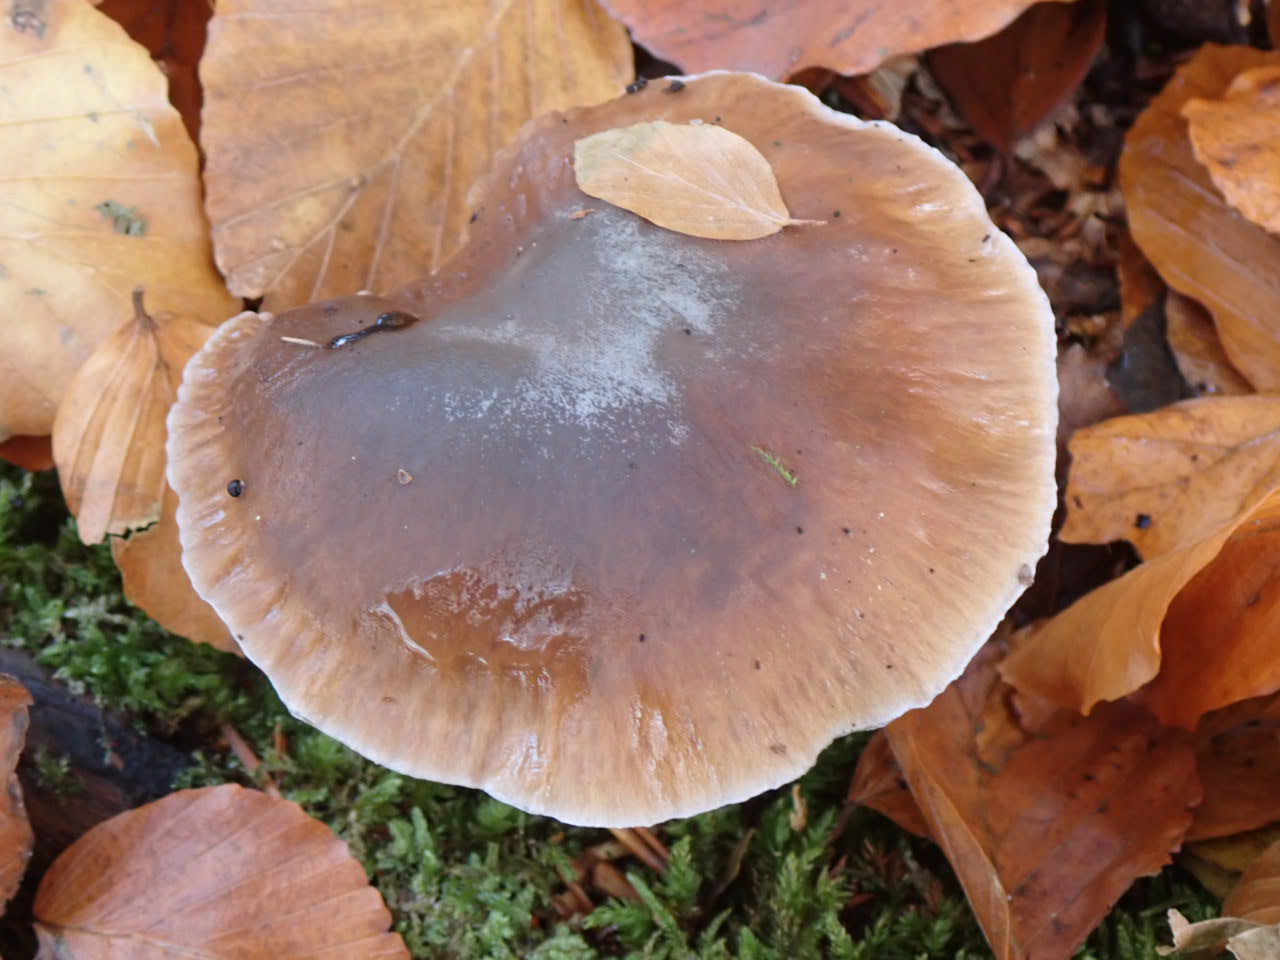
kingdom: Fungi
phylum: Basidiomycota
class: Agaricomycetes
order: Agaricales
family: Cortinariaceae
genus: Cortinarius
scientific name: Cortinarius
